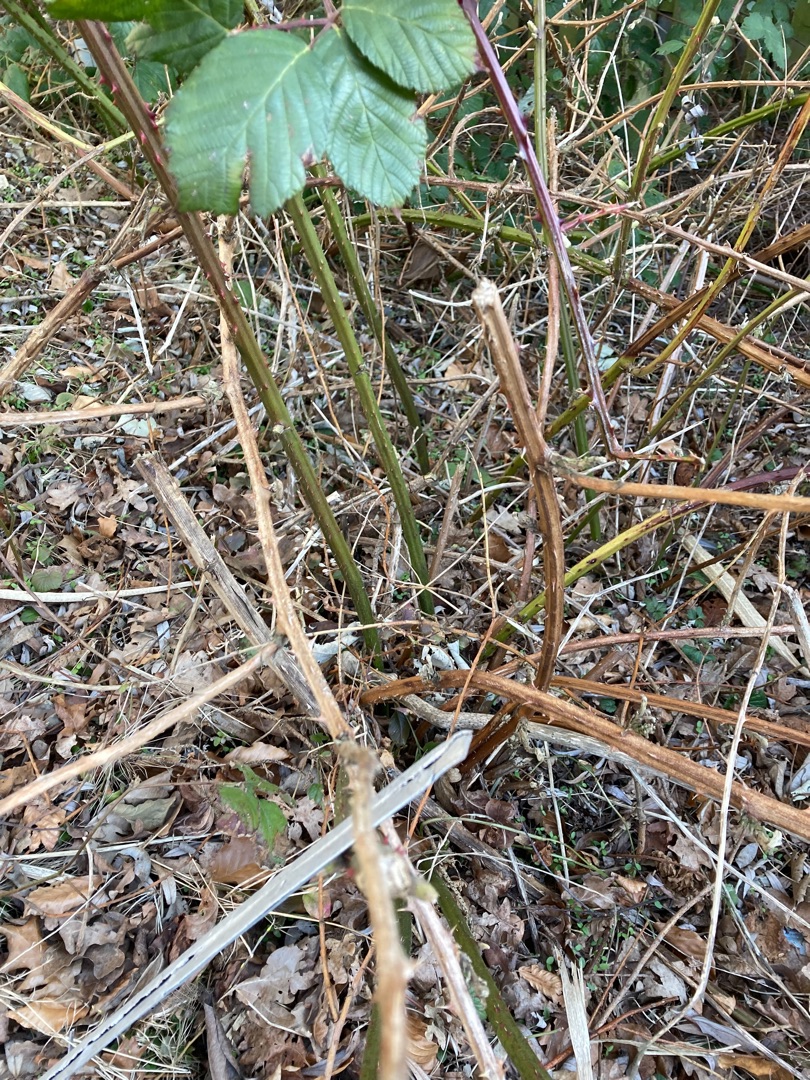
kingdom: Plantae
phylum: Tracheophyta
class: Magnoliopsida
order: Rosales
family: Rosaceae
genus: Rubus
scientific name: Rubus armeniacus
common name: Armensk brombær
